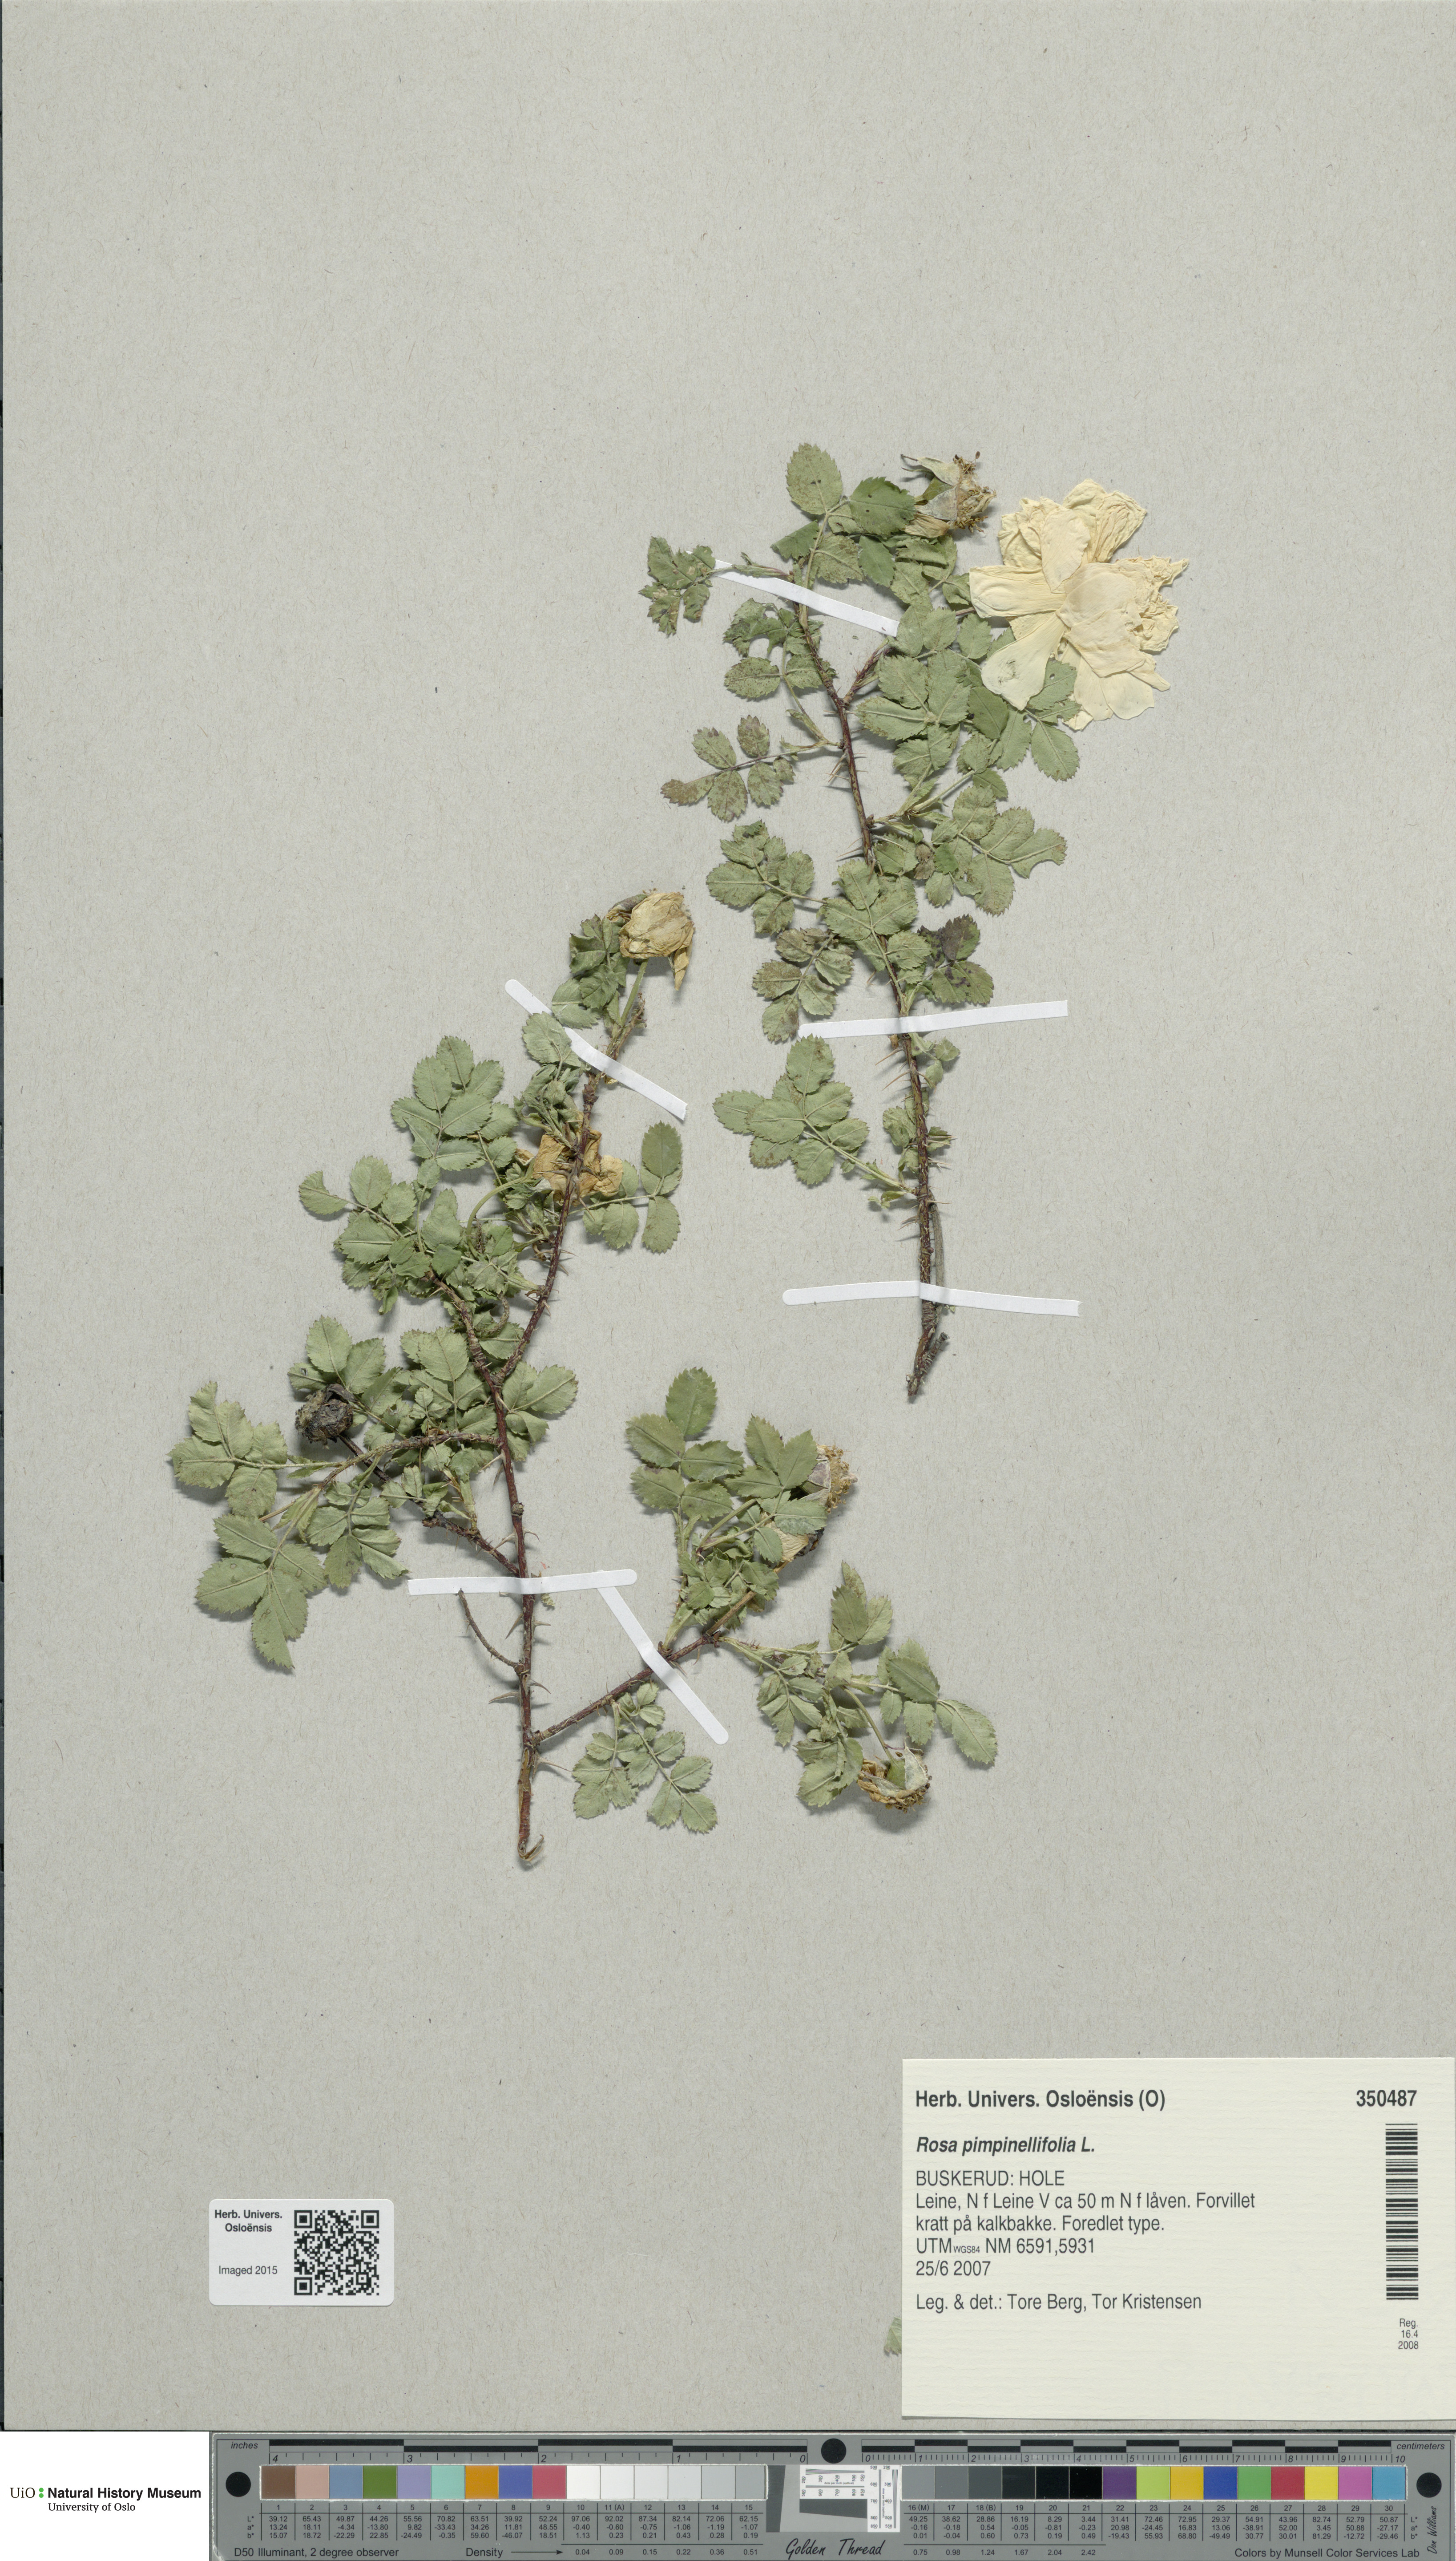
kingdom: Plantae
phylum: Tracheophyta
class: Magnoliopsida
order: Rosales
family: Rosaceae
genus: Rosa
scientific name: Rosa spinosissima
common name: Burnet rose
